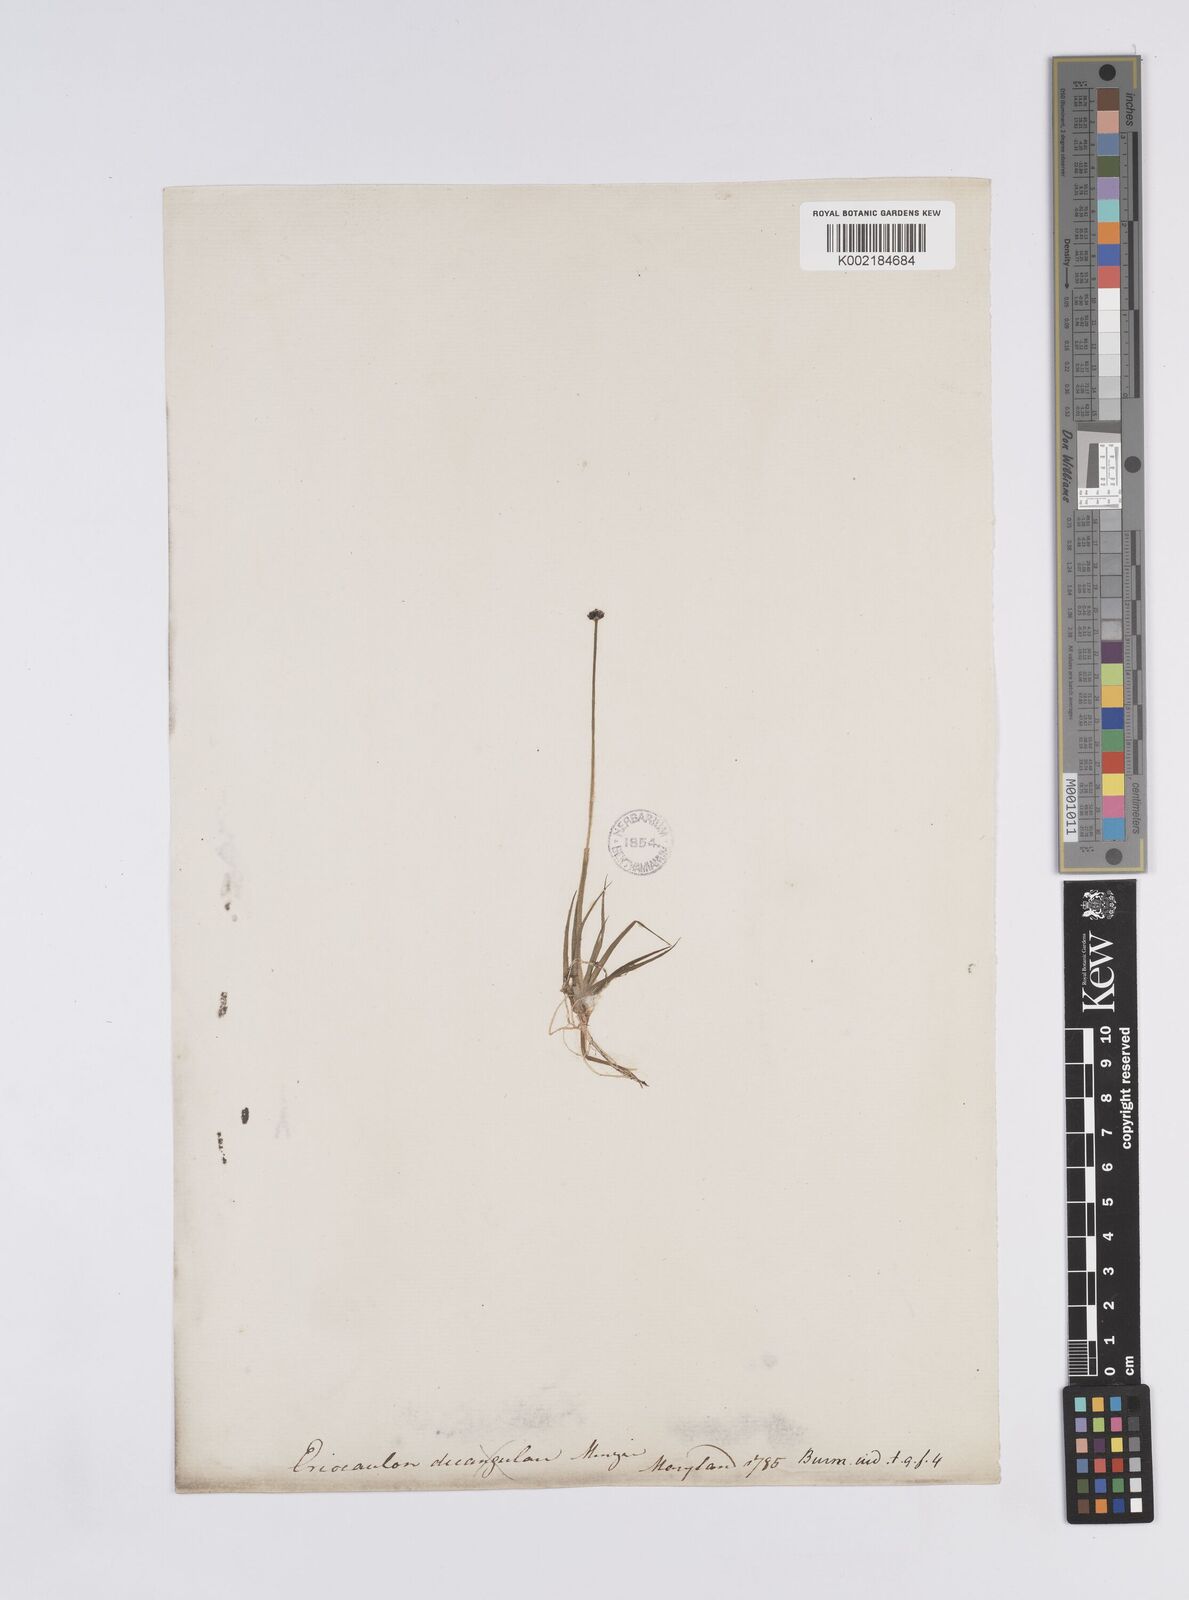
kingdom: Plantae
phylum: Tracheophyta
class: Liliopsida
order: Poales
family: Eriocaulaceae
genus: Eriocaulon
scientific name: Eriocaulon aquaticum
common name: Pipewort
